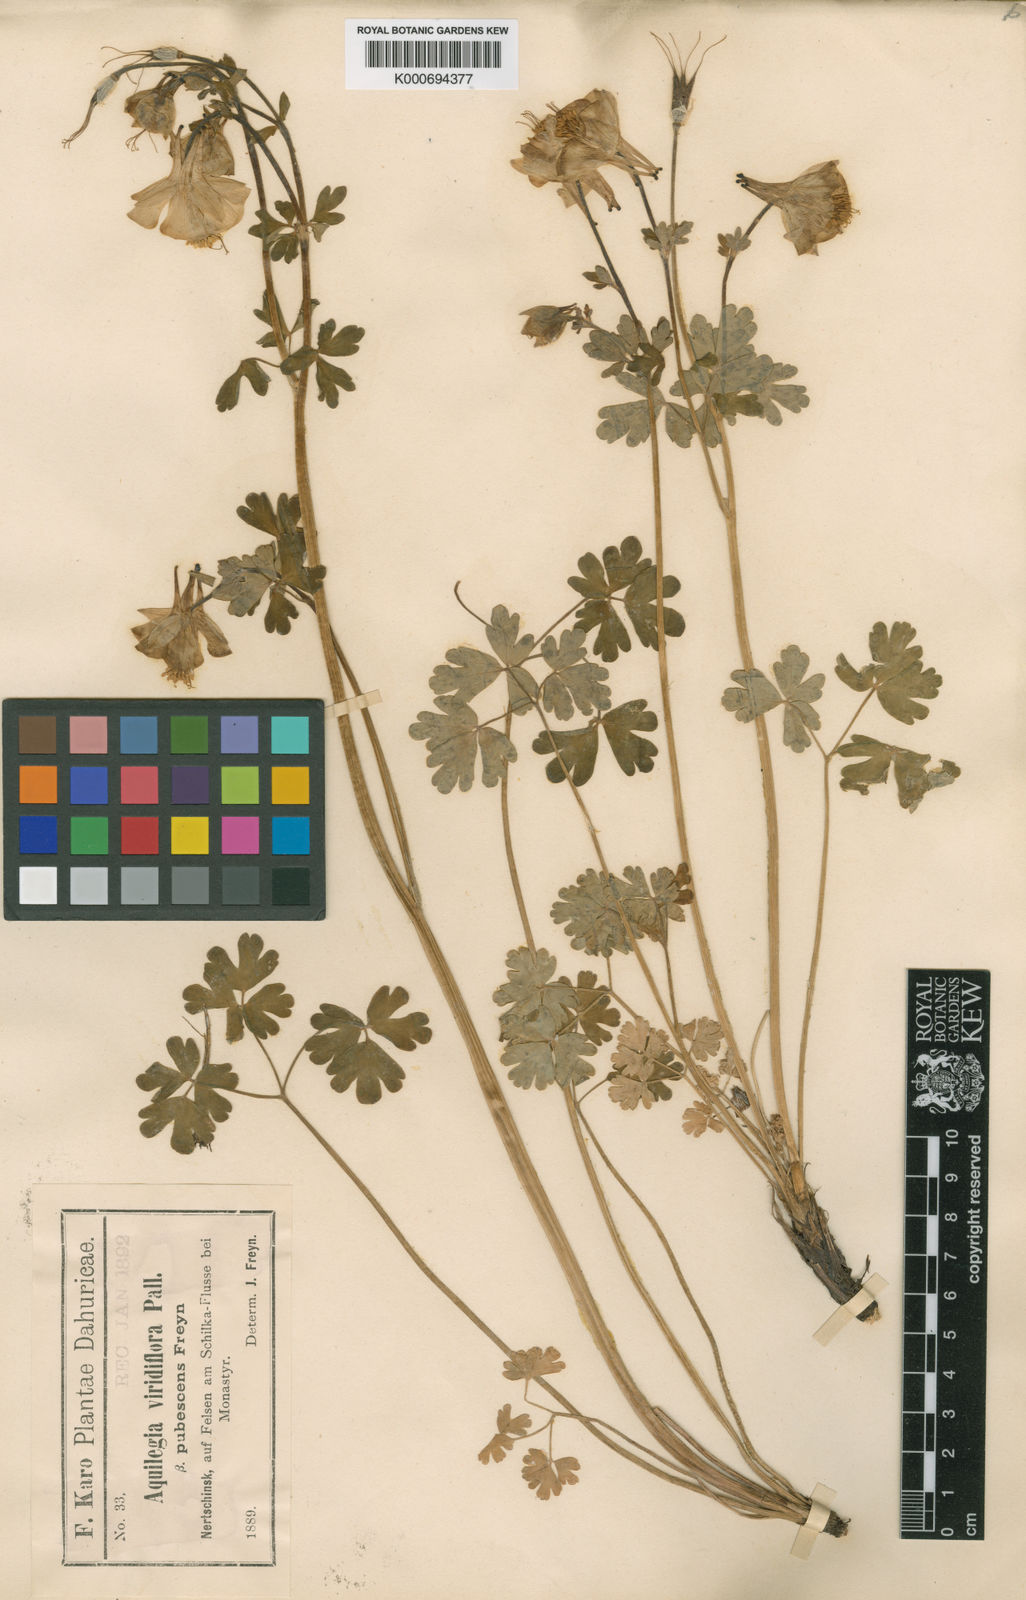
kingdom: Plantae
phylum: Tracheophyta
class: Magnoliopsida
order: Ranunculales
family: Ranunculaceae
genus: Aquilegia
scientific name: Aquilegia viridiflora
